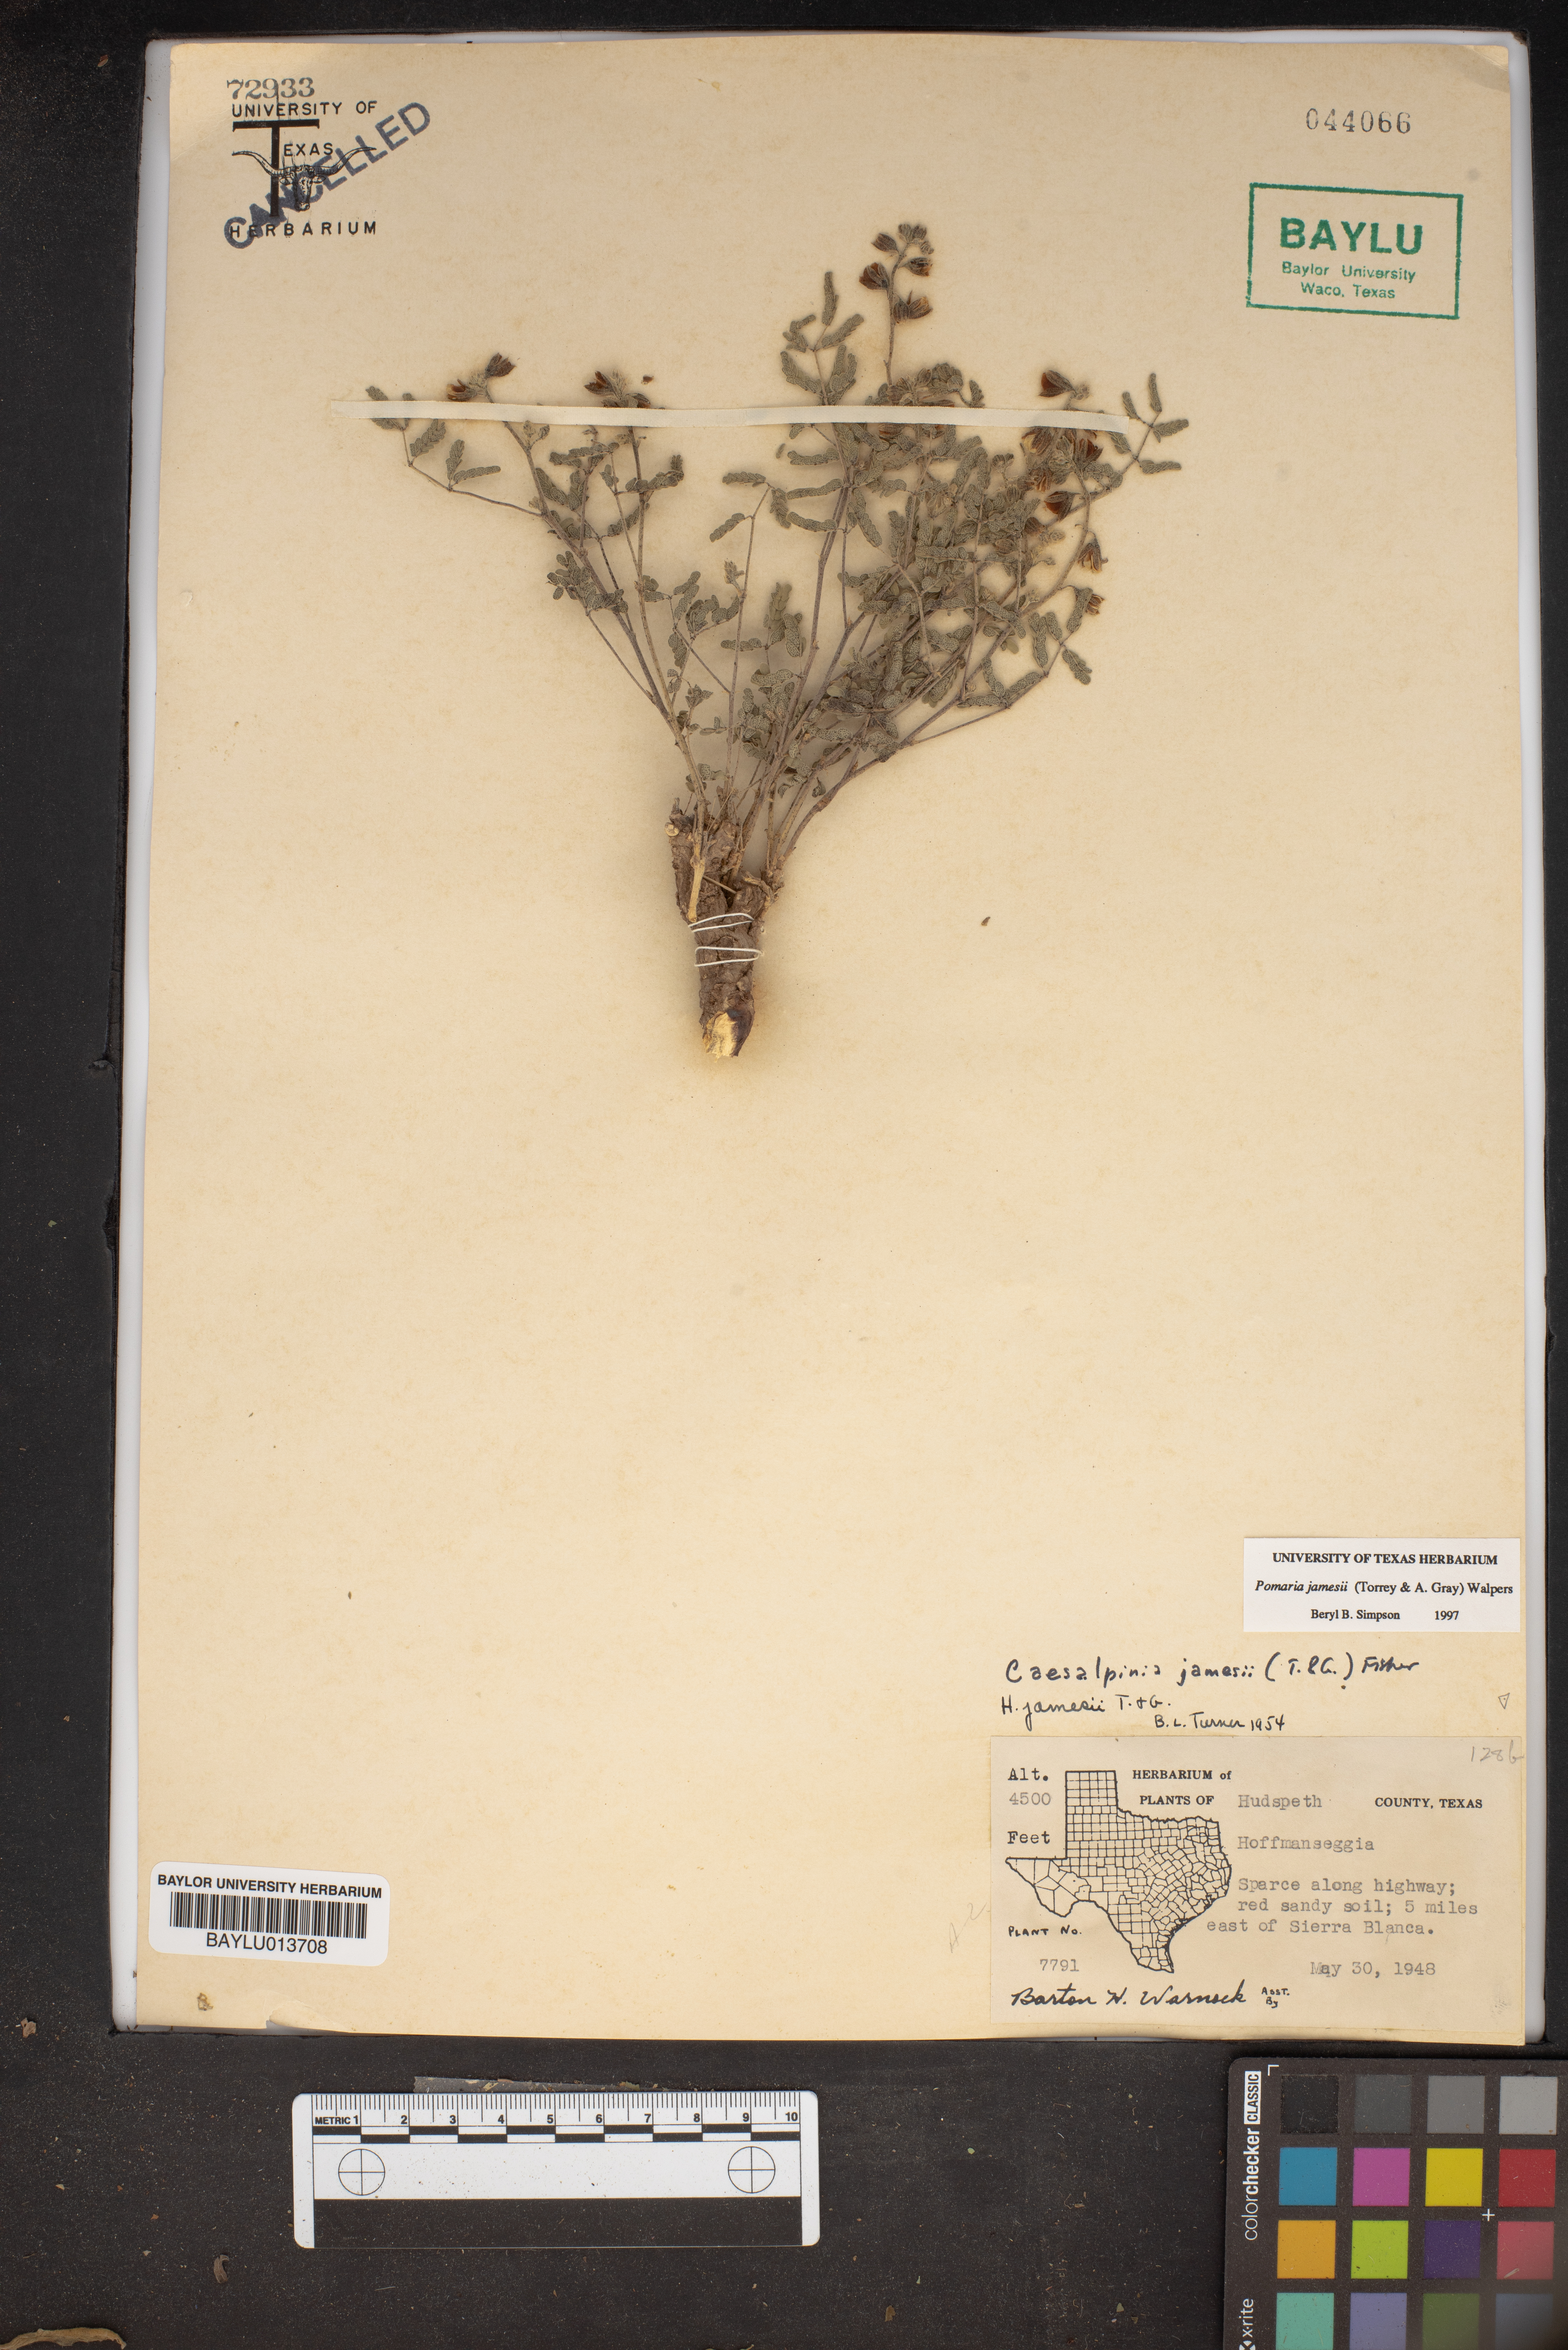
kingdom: Plantae
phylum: Tracheophyta
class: Magnoliopsida
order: Fabales
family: Fabaceae
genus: Pomaria
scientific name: Pomaria jamesii
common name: James' caesalpinia
